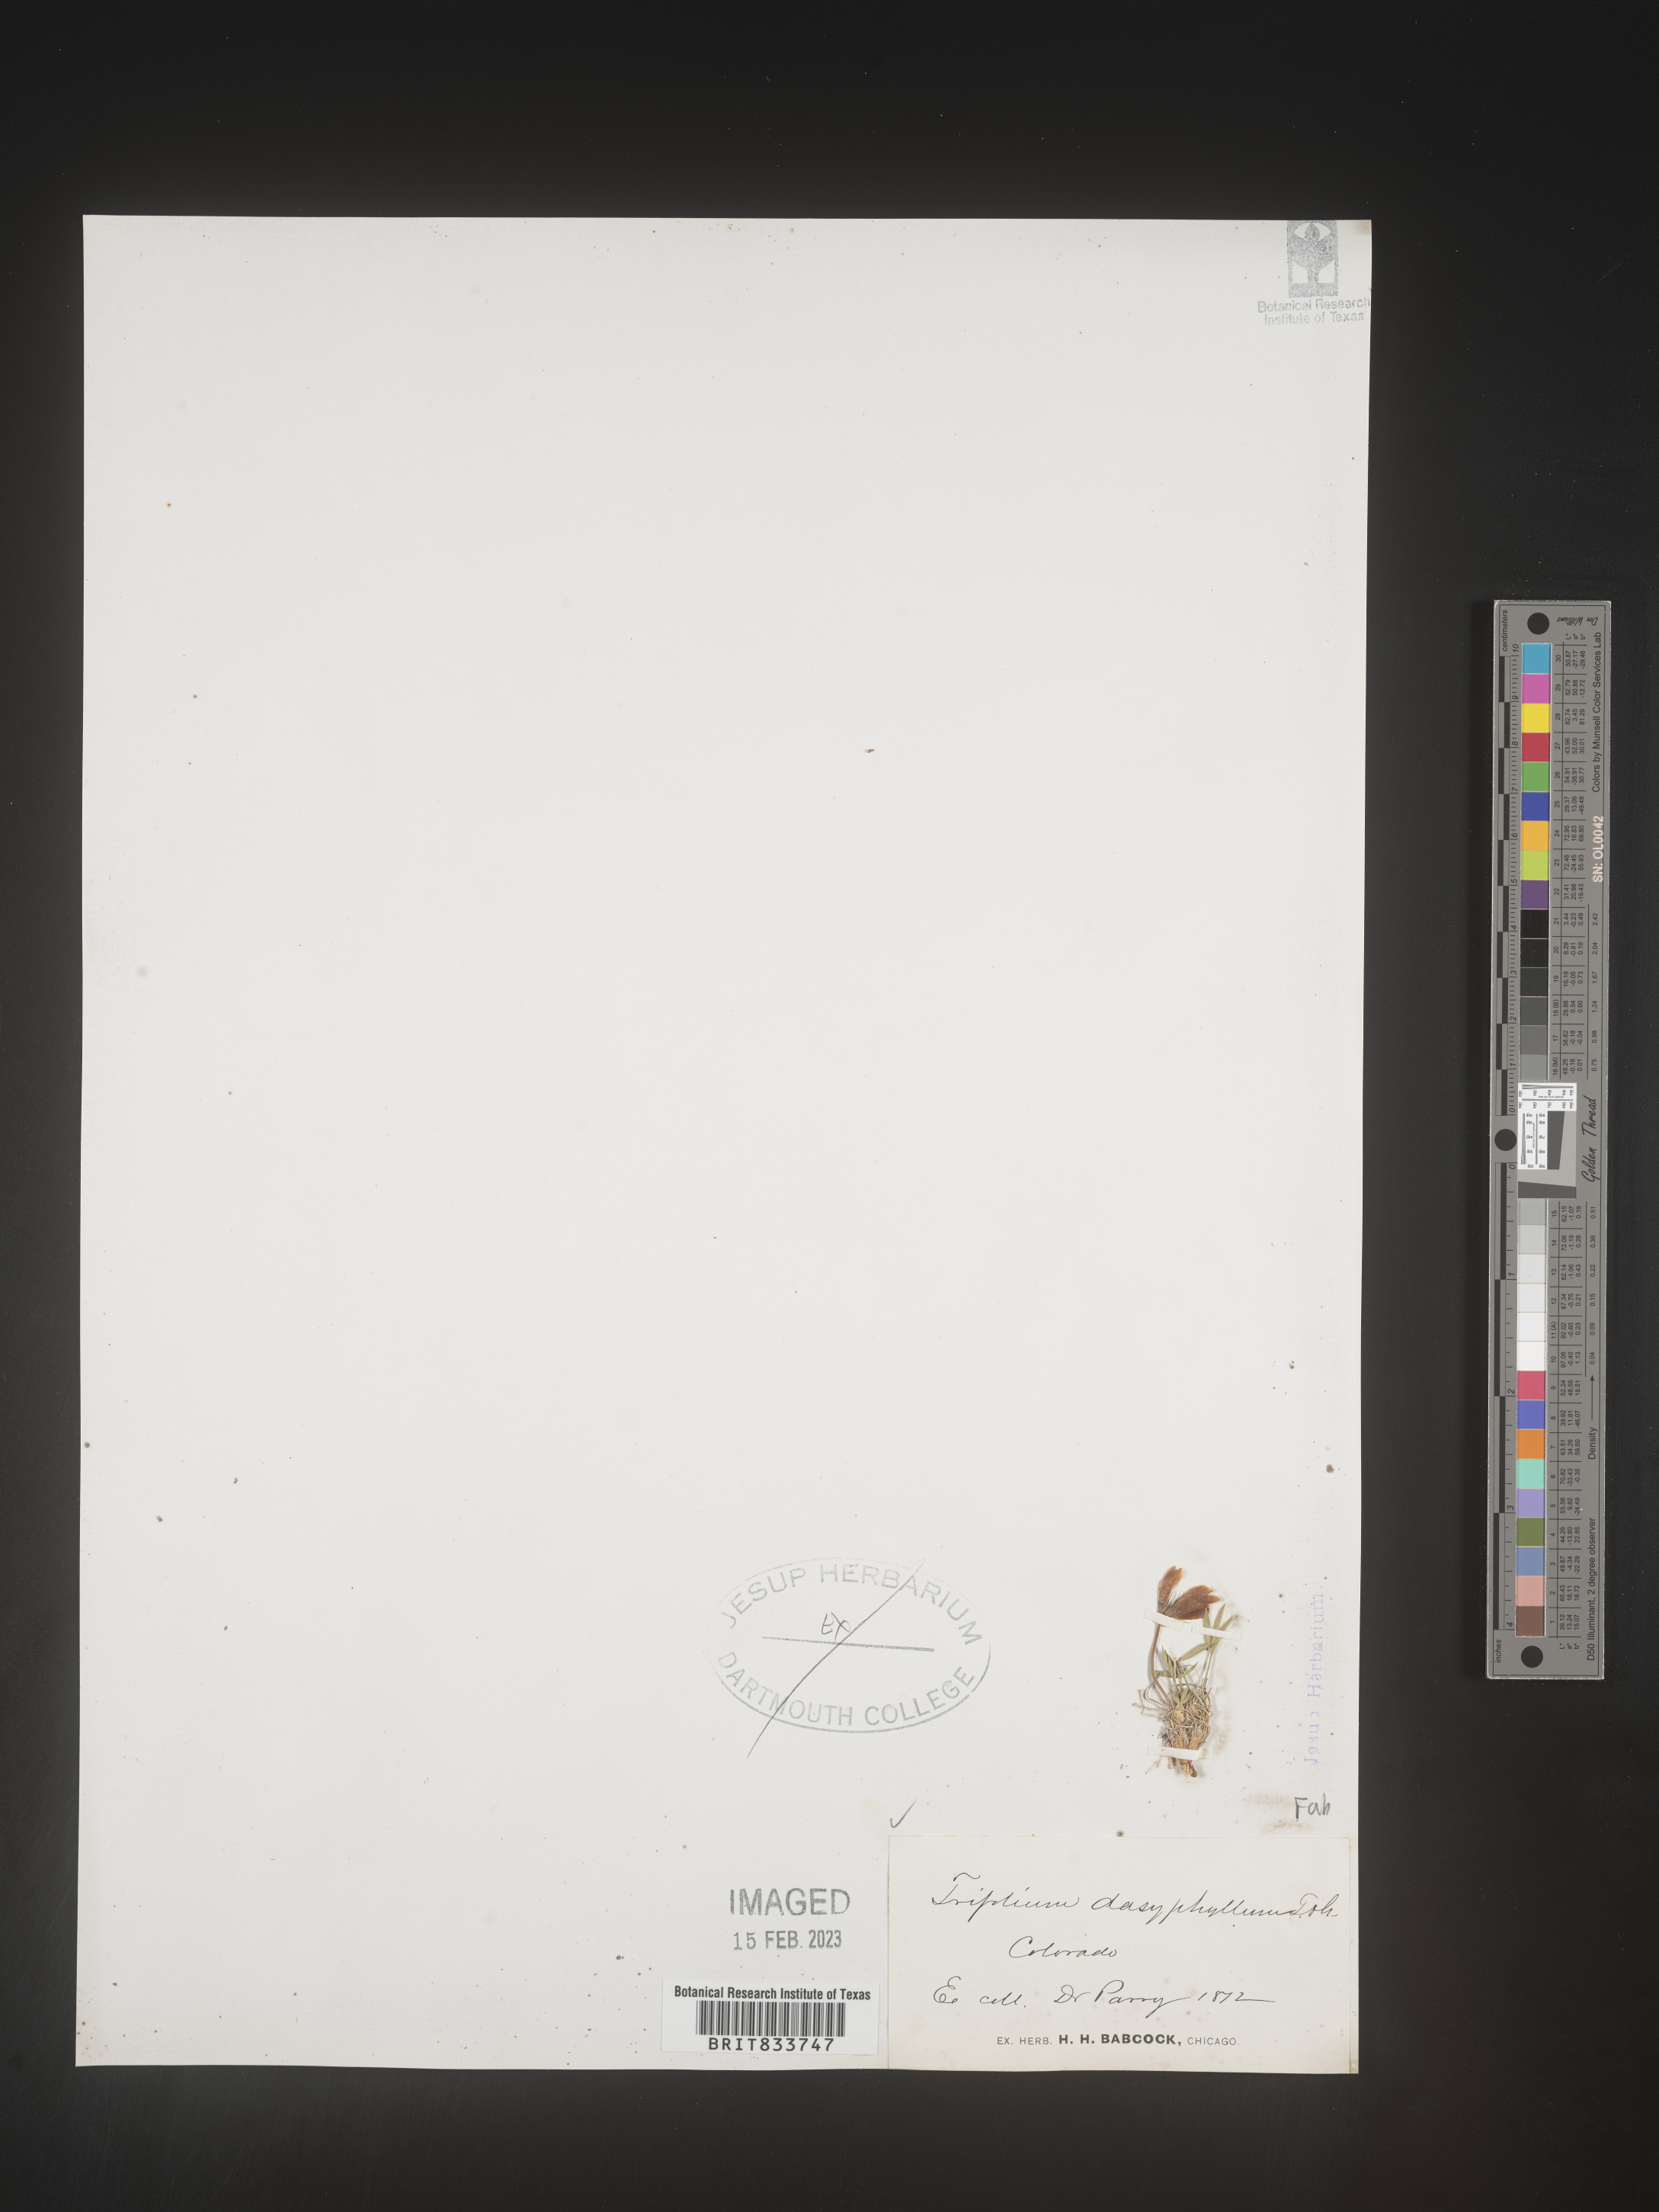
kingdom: Plantae
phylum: Tracheophyta
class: Magnoliopsida
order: Fabales
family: Fabaceae
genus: Trifolium
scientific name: Trifolium
